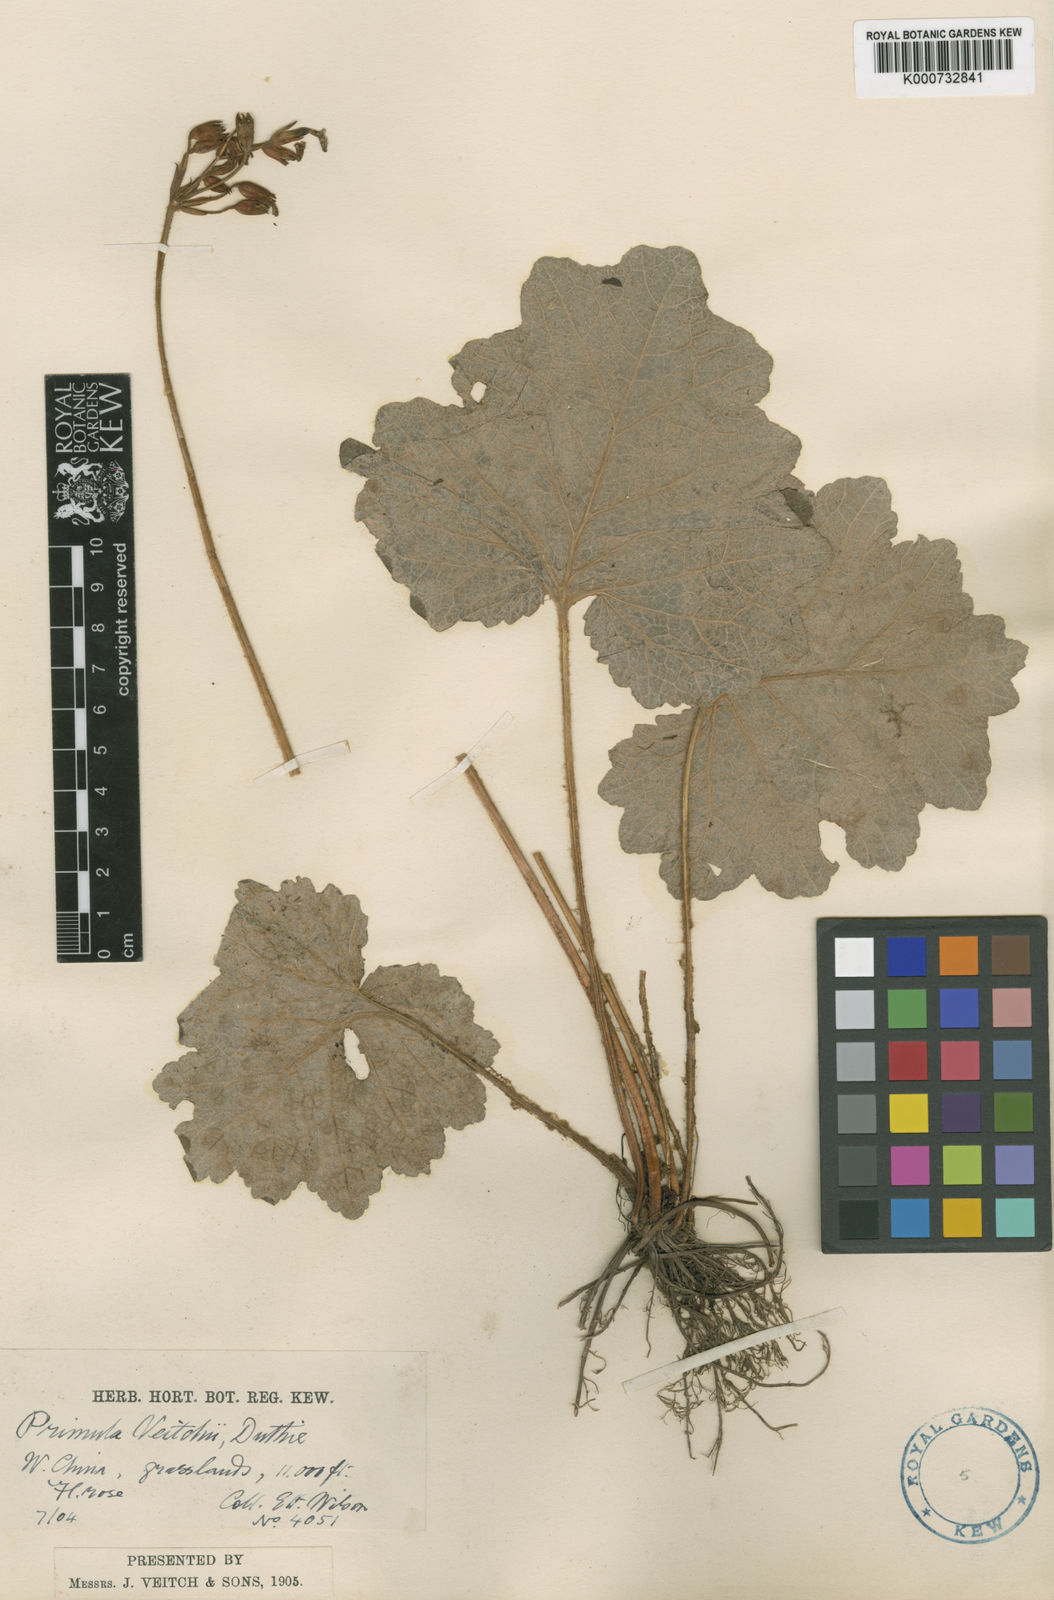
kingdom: Plantae
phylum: Tracheophyta
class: Magnoliopsida
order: Ericales
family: Primulaceae
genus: Primula
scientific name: Primula polyneura
